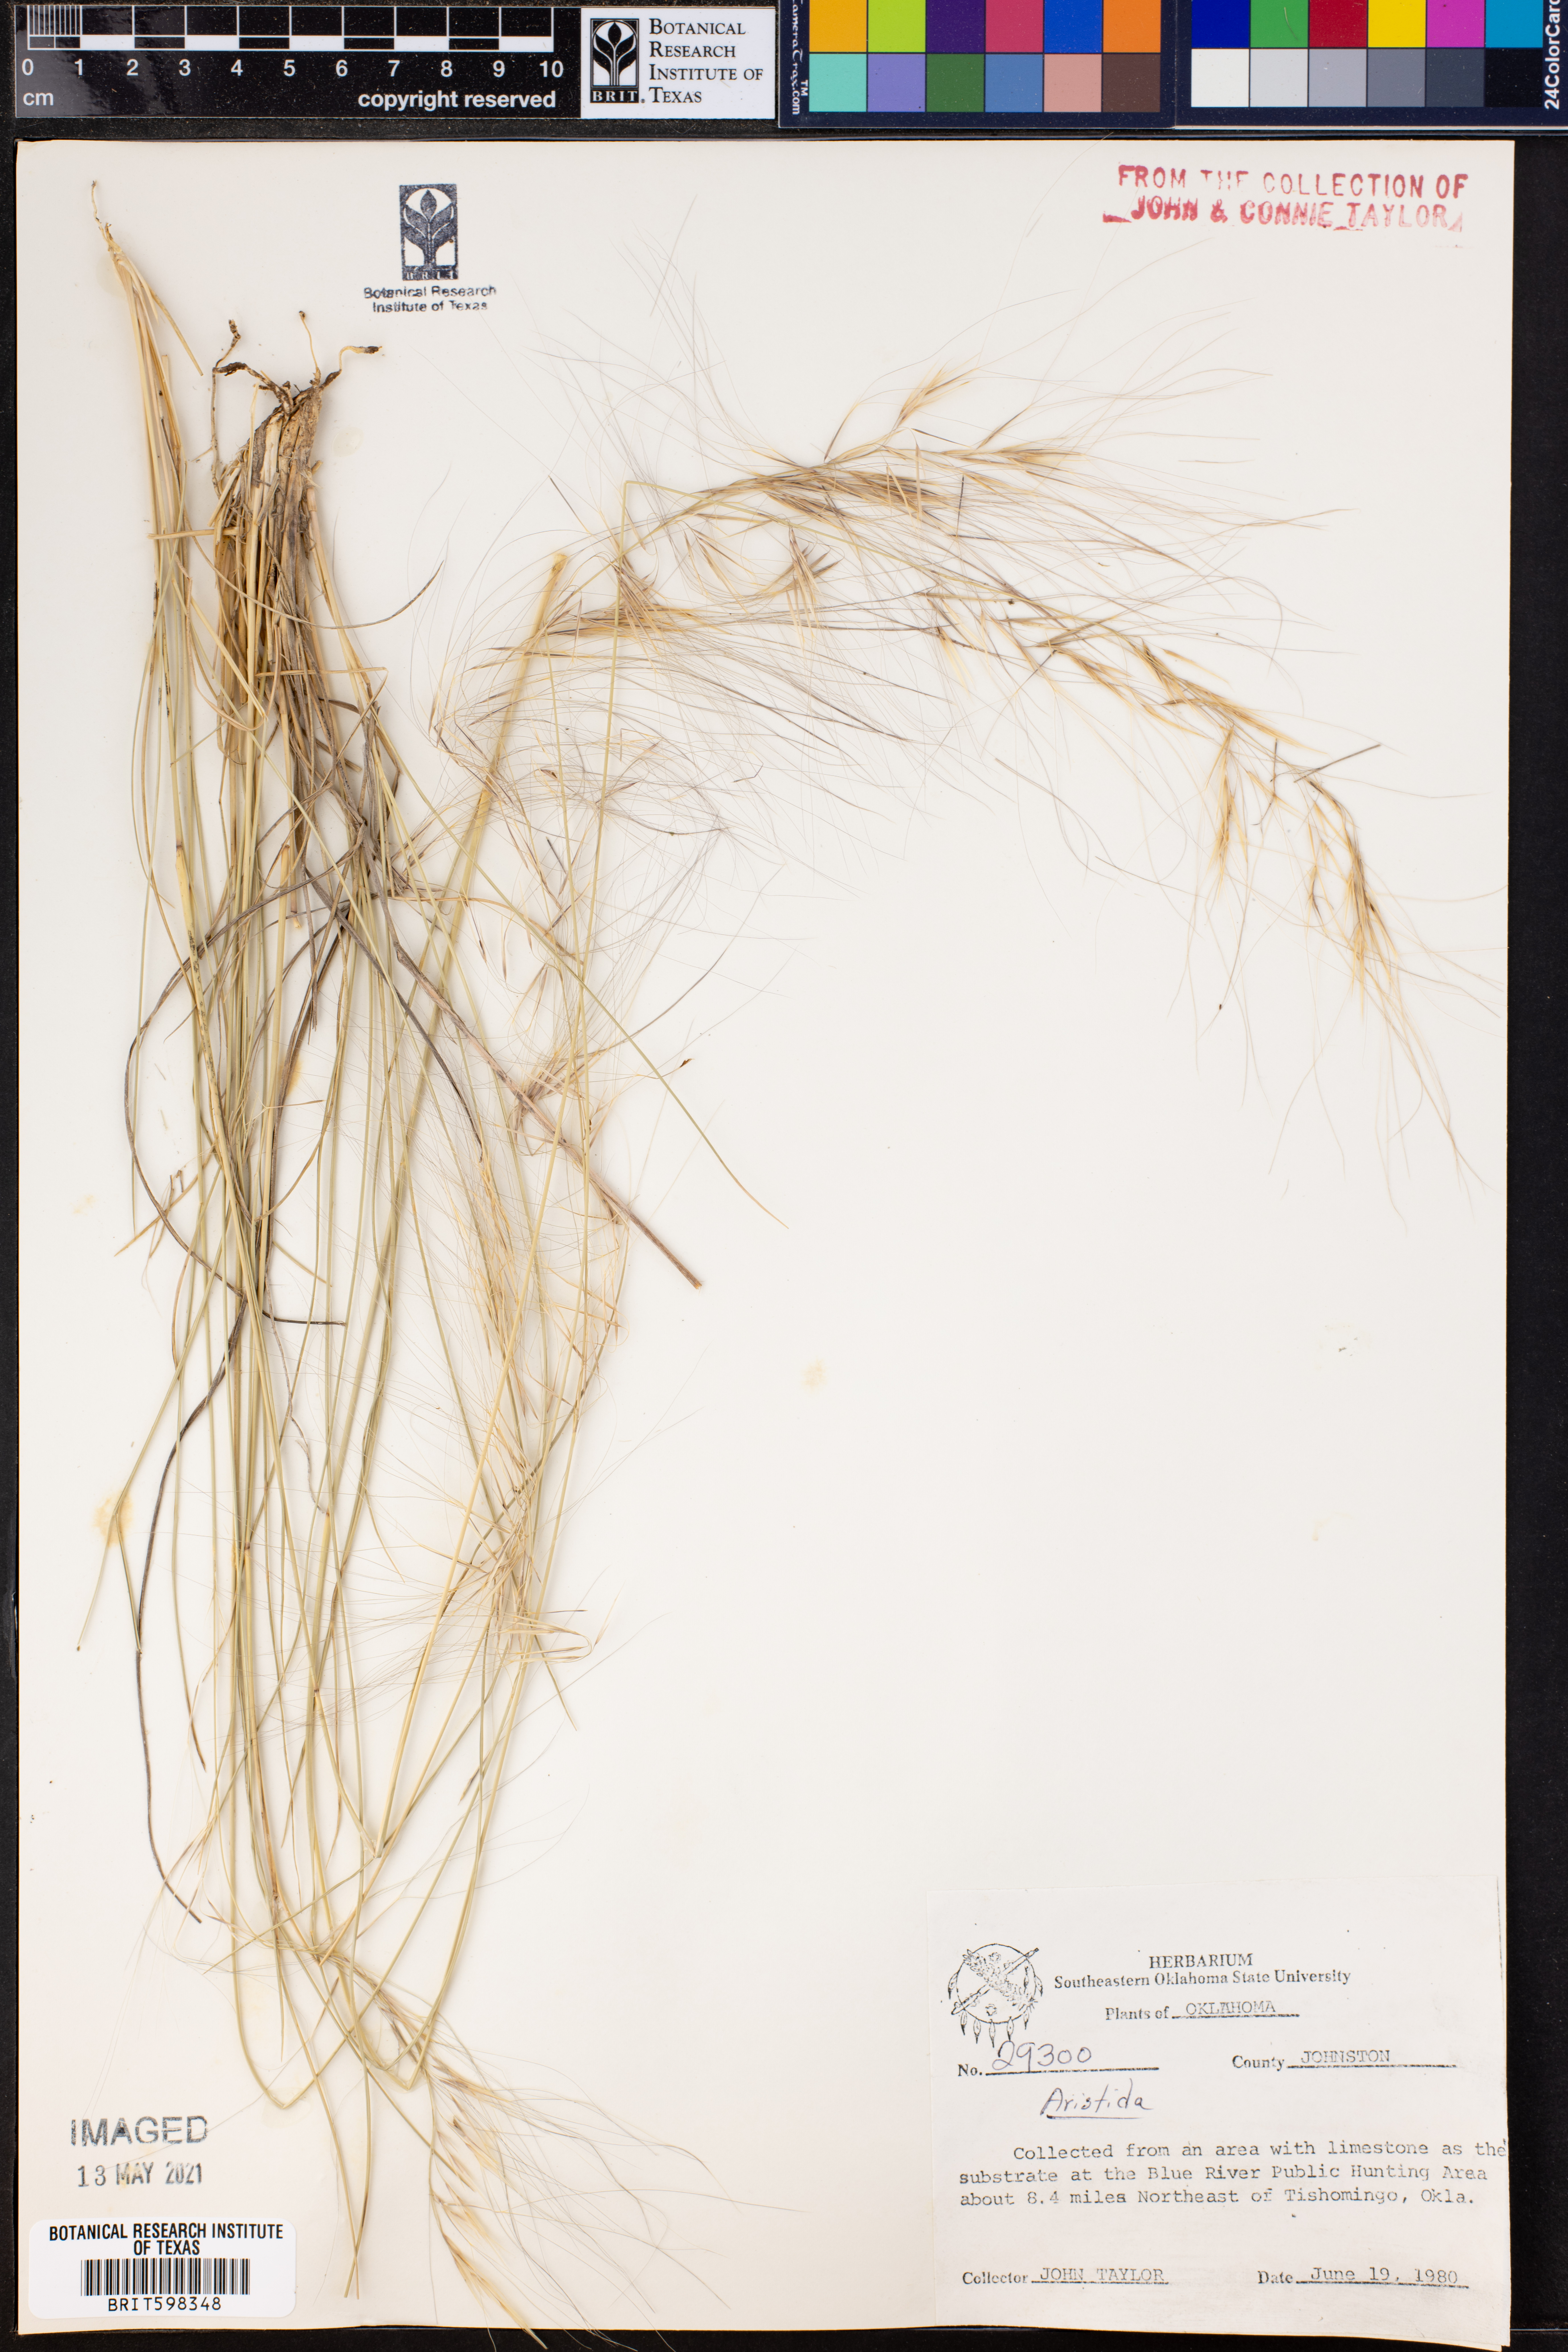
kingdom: Plantae
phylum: Tracheophyta
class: Liliopsida
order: Poales
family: Poaceae
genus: Aristida
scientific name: Aristida
